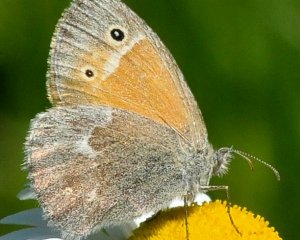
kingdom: Animalia
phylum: Arthropoda
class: Insecta
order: Lepidoptera
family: Nymphalidae
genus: Coenonympha
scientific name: Coenonympha tullia
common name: Large Heath
